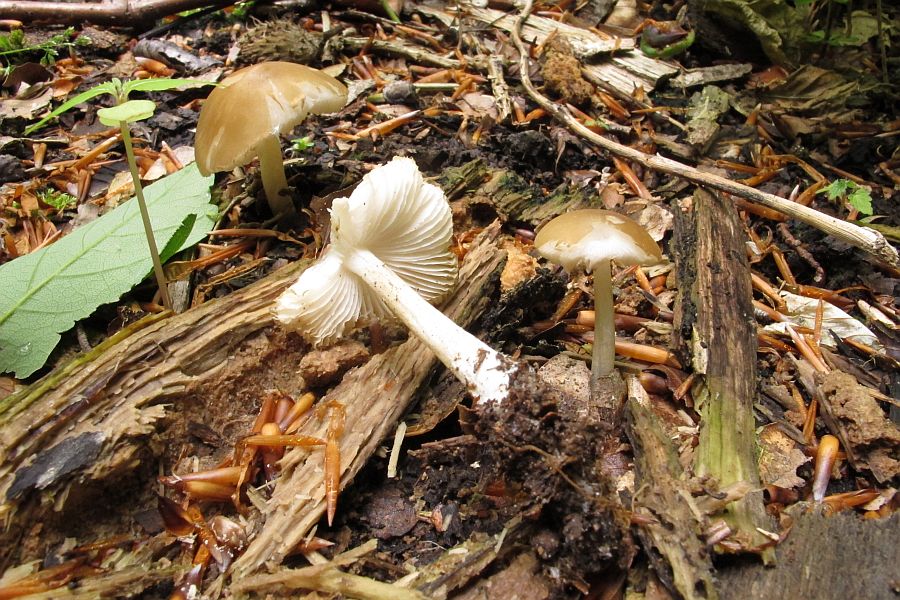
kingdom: Fungi
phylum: Basidiomycota
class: Agaricomycetes
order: Agaricales
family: Porotheleaceae
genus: Hydropodia
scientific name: Hydropodia subalpina
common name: vår-fnugfod
